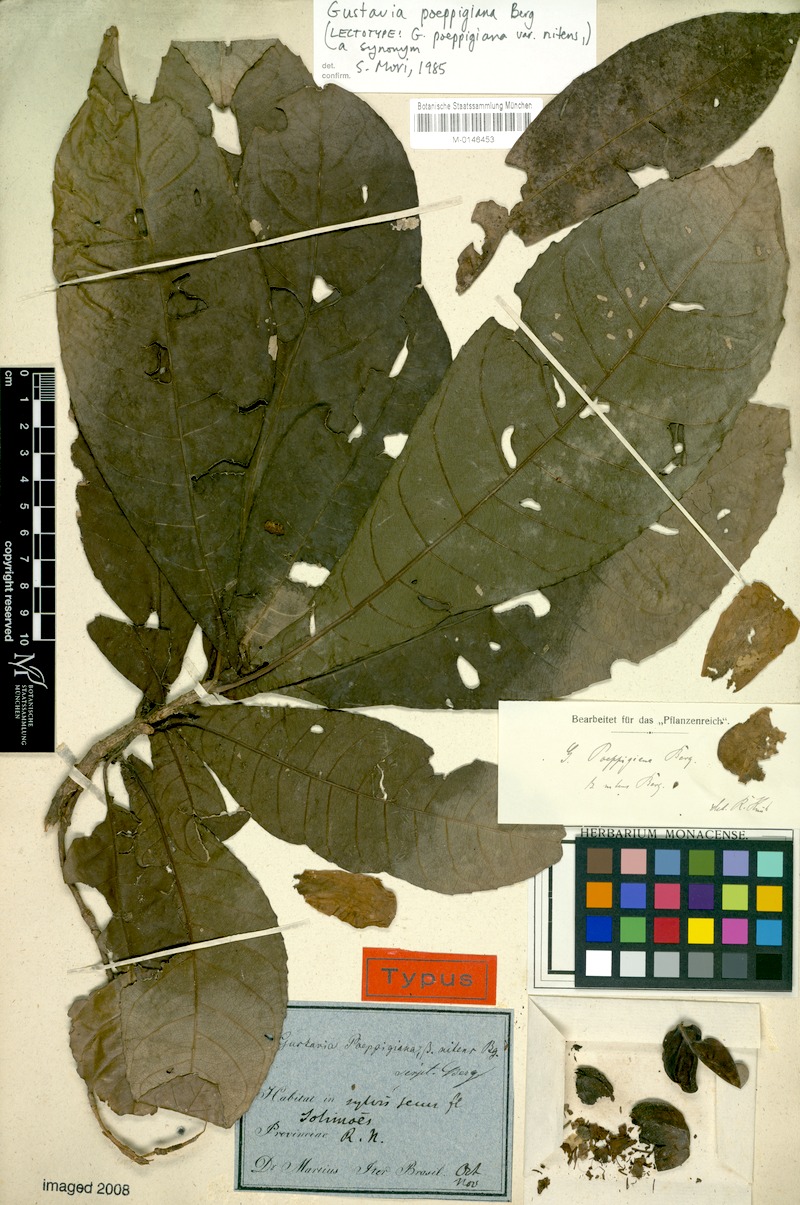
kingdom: Plantae
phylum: Tracheophyta
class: Magnoliopsida
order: Ericales
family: Lecythidaceae
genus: Gustavia
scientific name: Gustavia poeppigiana
